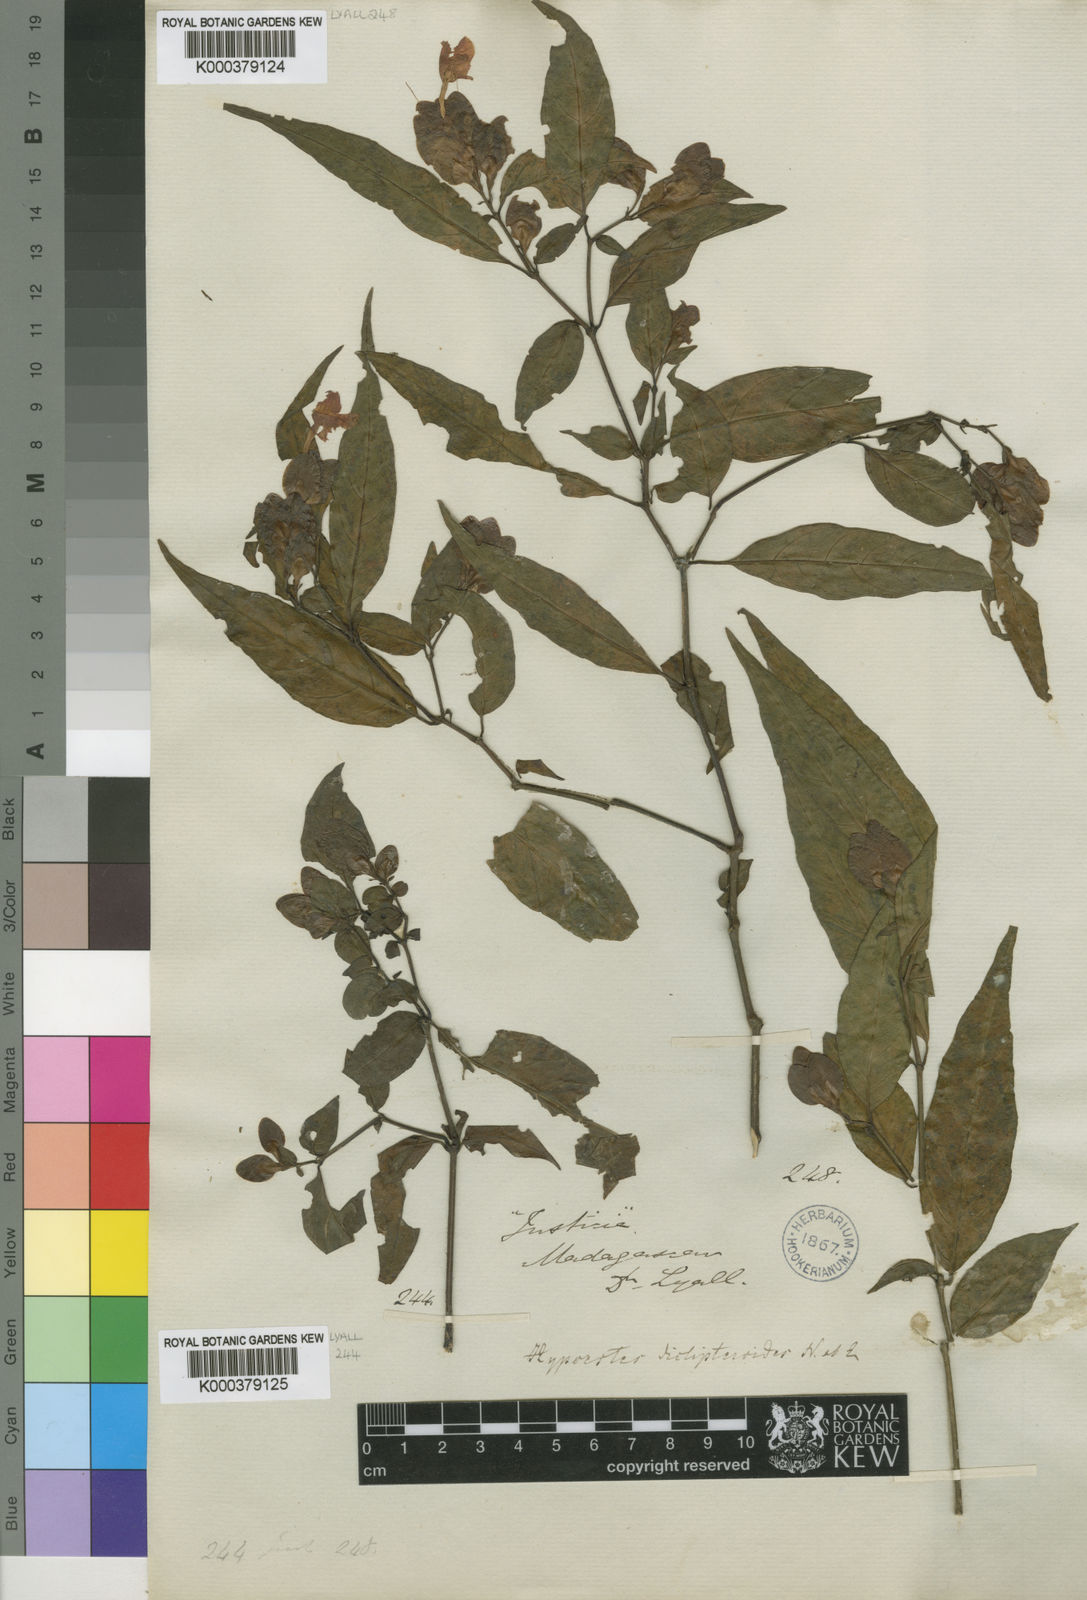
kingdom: Plantae
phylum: Tracheophyta
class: Magnoliopsida
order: Lamiales
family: Acanthaceae
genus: Hypoestes
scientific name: Hypoestes diclipteroides
